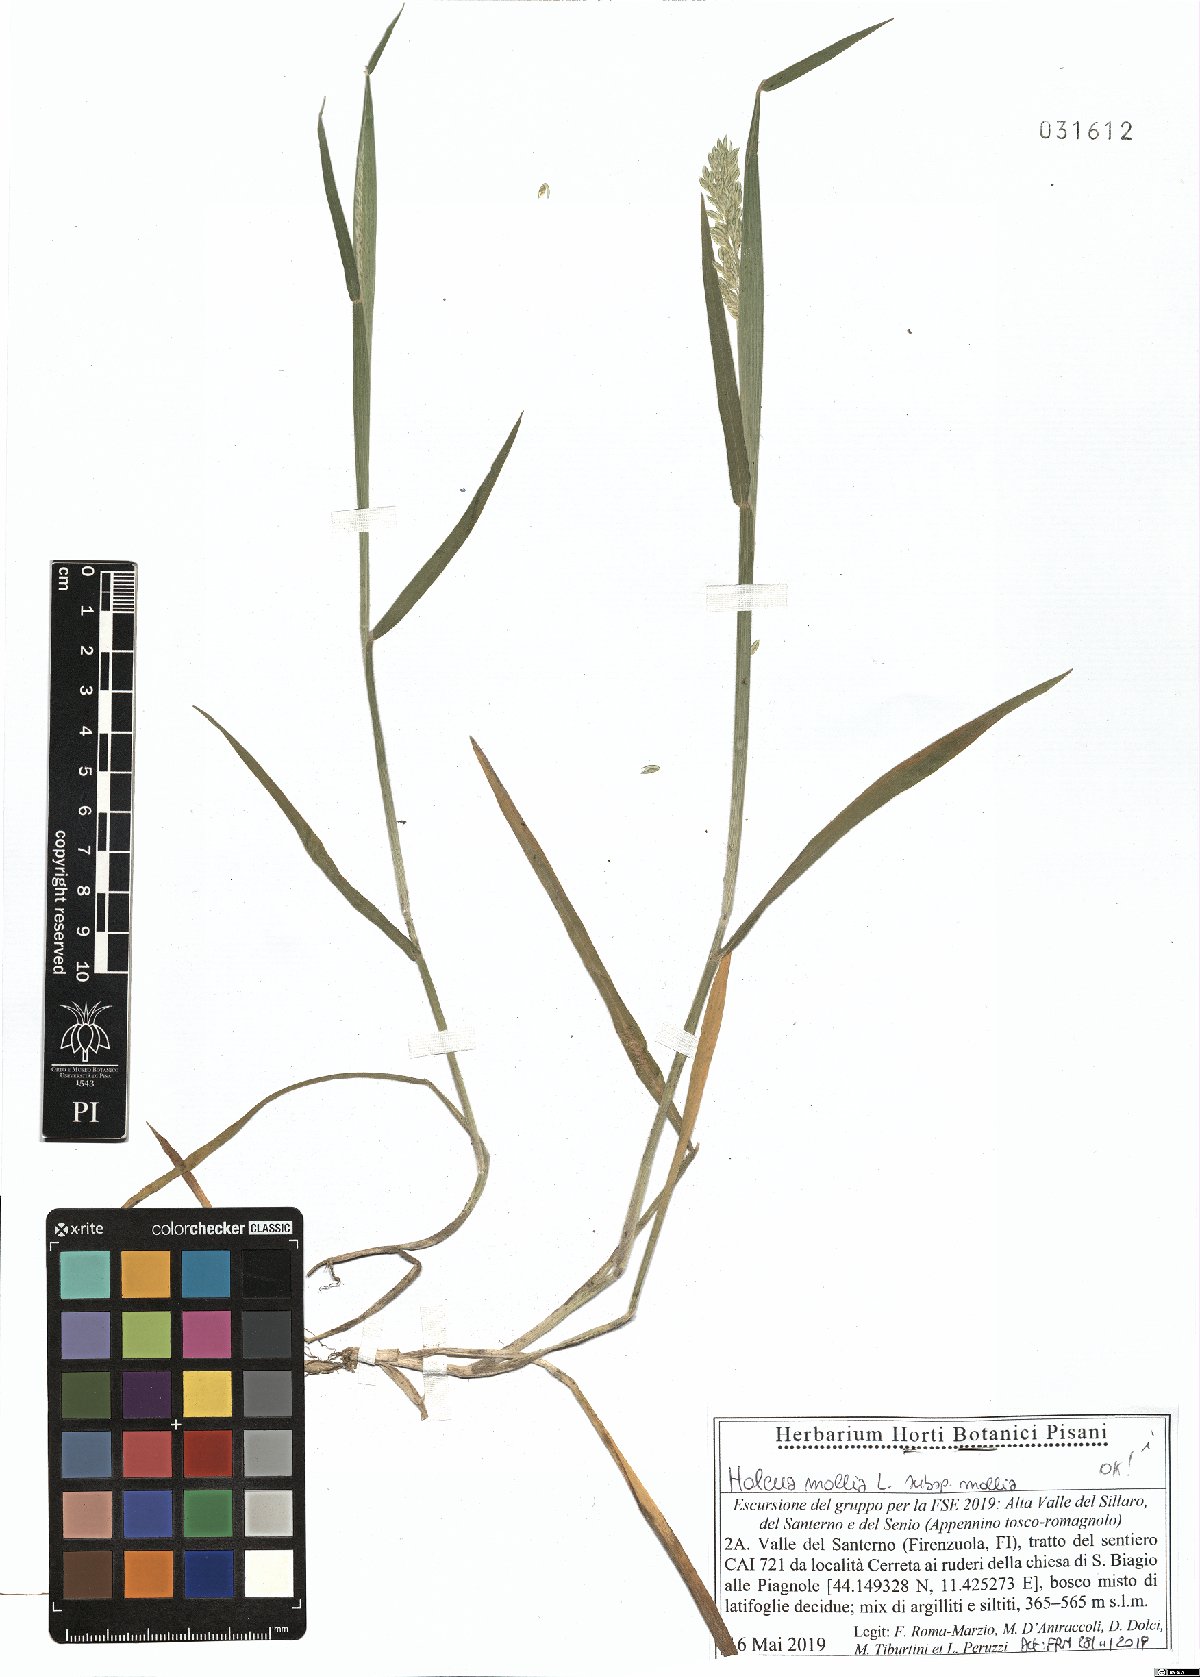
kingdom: Plantae
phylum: Tracheophyta
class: Liliopsida
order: Poales
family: Poaceae
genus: Holcus
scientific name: Holcus mollis
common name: Creeping velvetgrass
